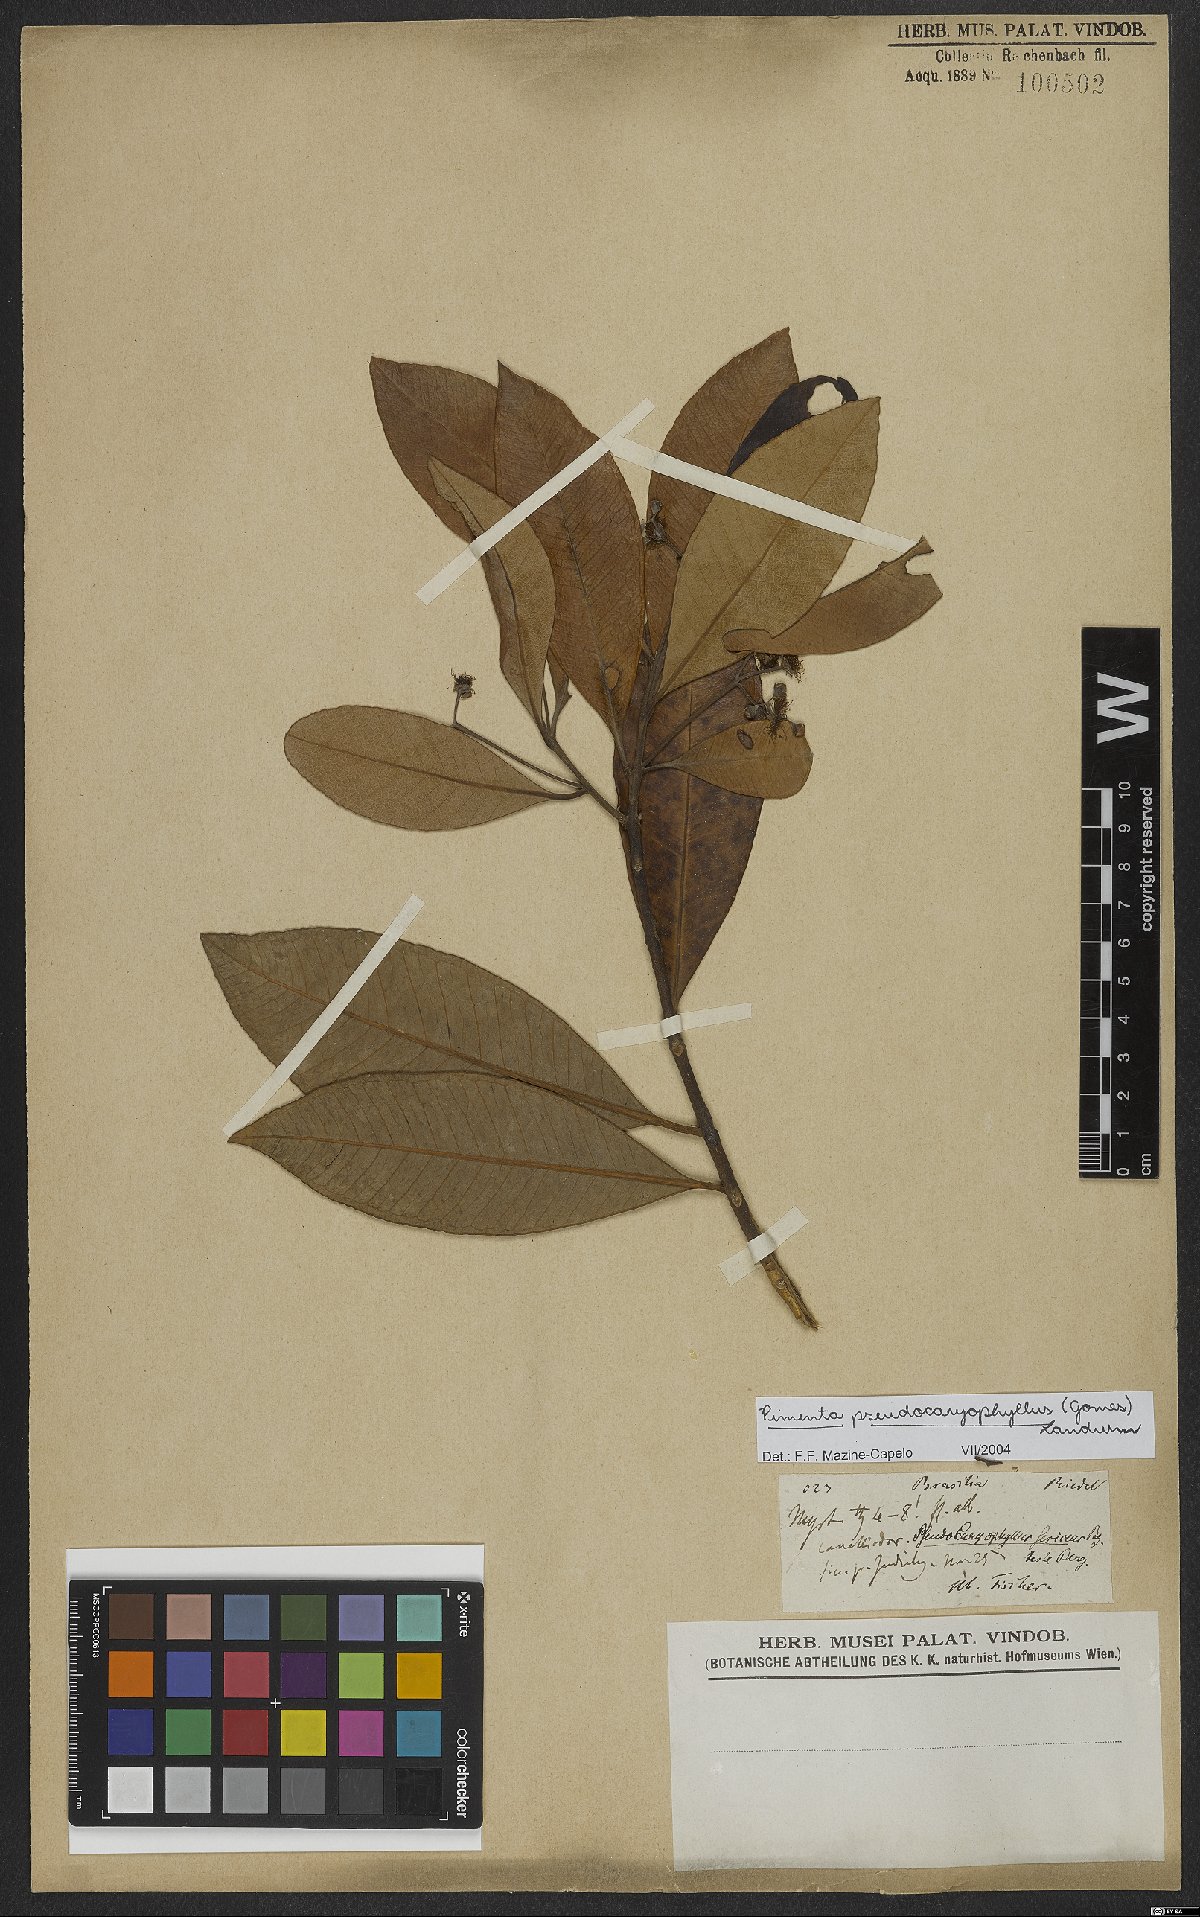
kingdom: Plantae
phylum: Tracheophyta
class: Magnoliopsida
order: Myrtales
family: Myrtaceae
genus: Pimenta
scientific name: Pimenta pseudocaryophyllus
